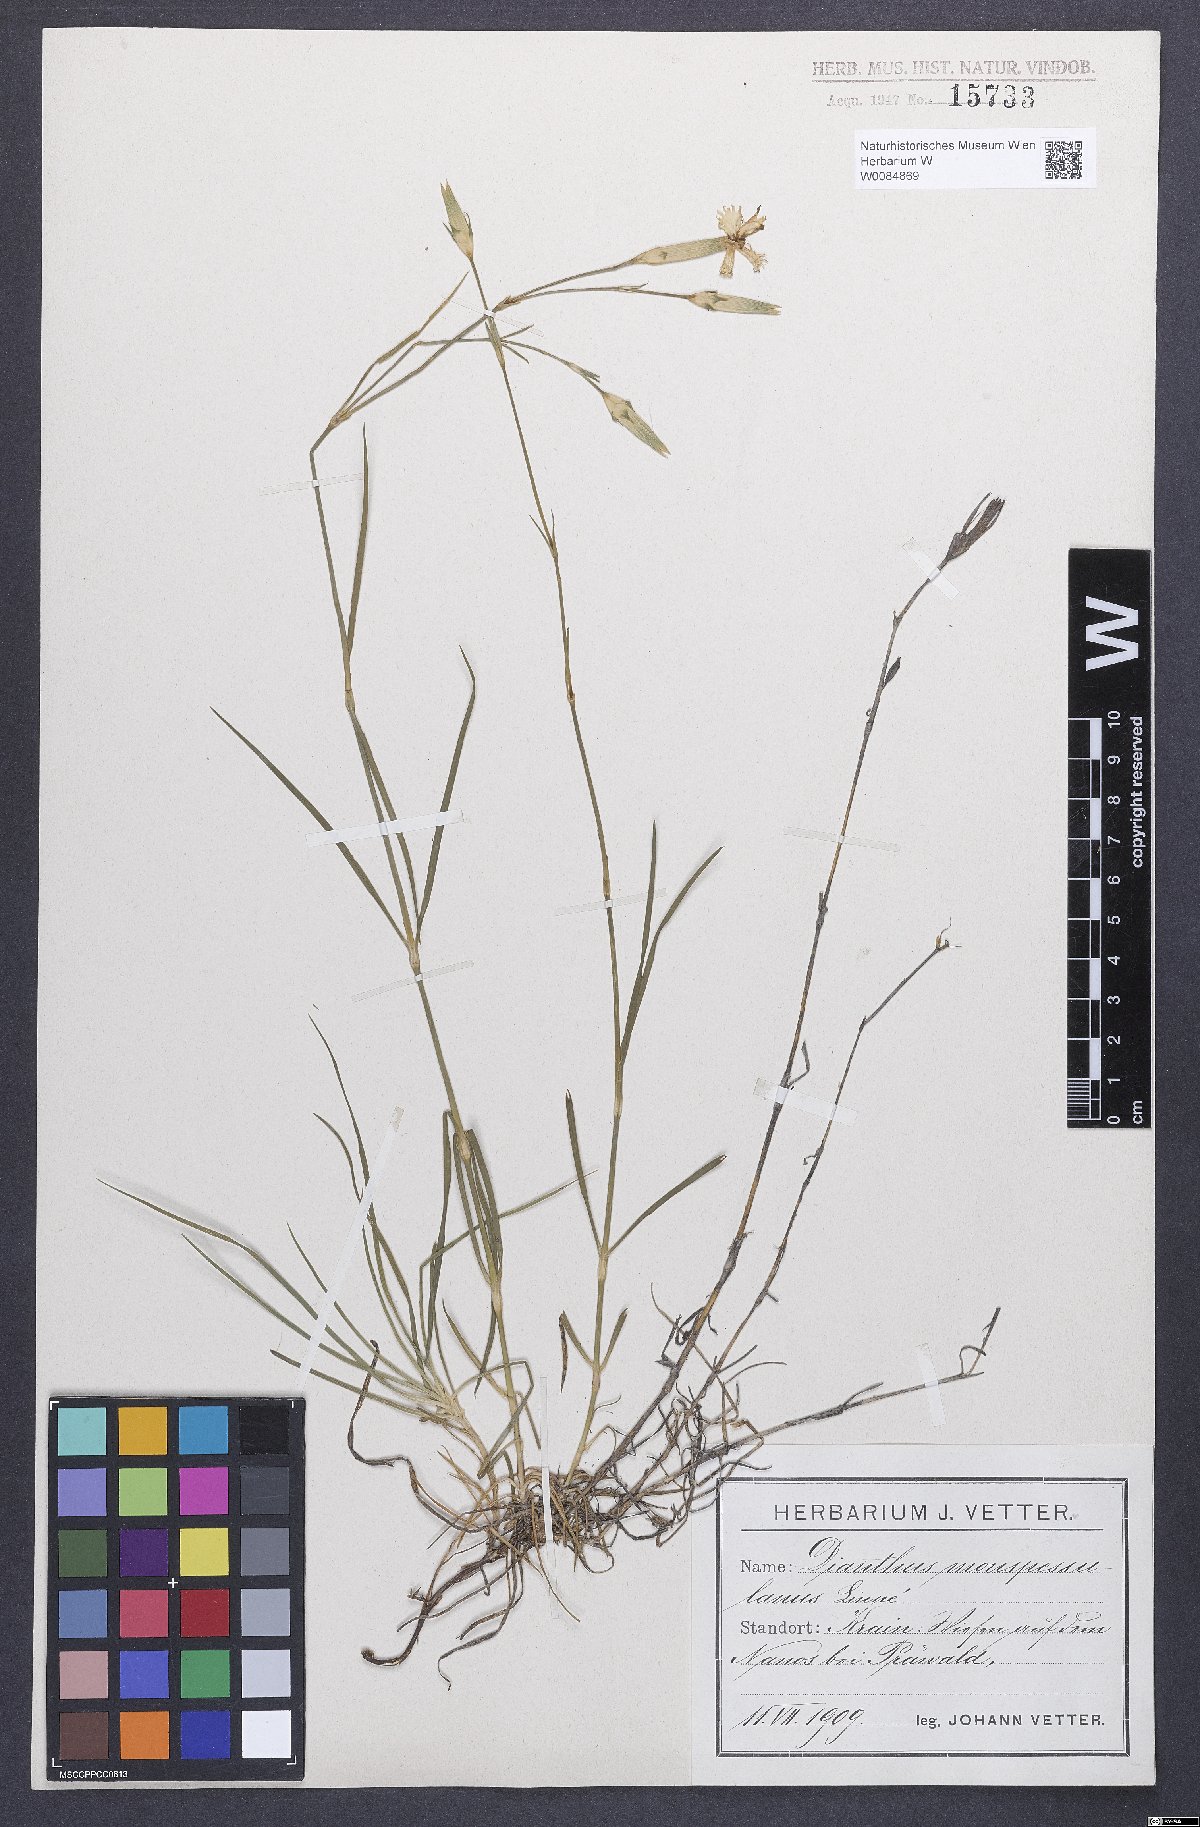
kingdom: Plantae
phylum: Tracheophyta
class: Magnoliopsida
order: Caryophyllales
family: Caryophyllaceae
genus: Dianthus
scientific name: Dianthus hyssopifolius
